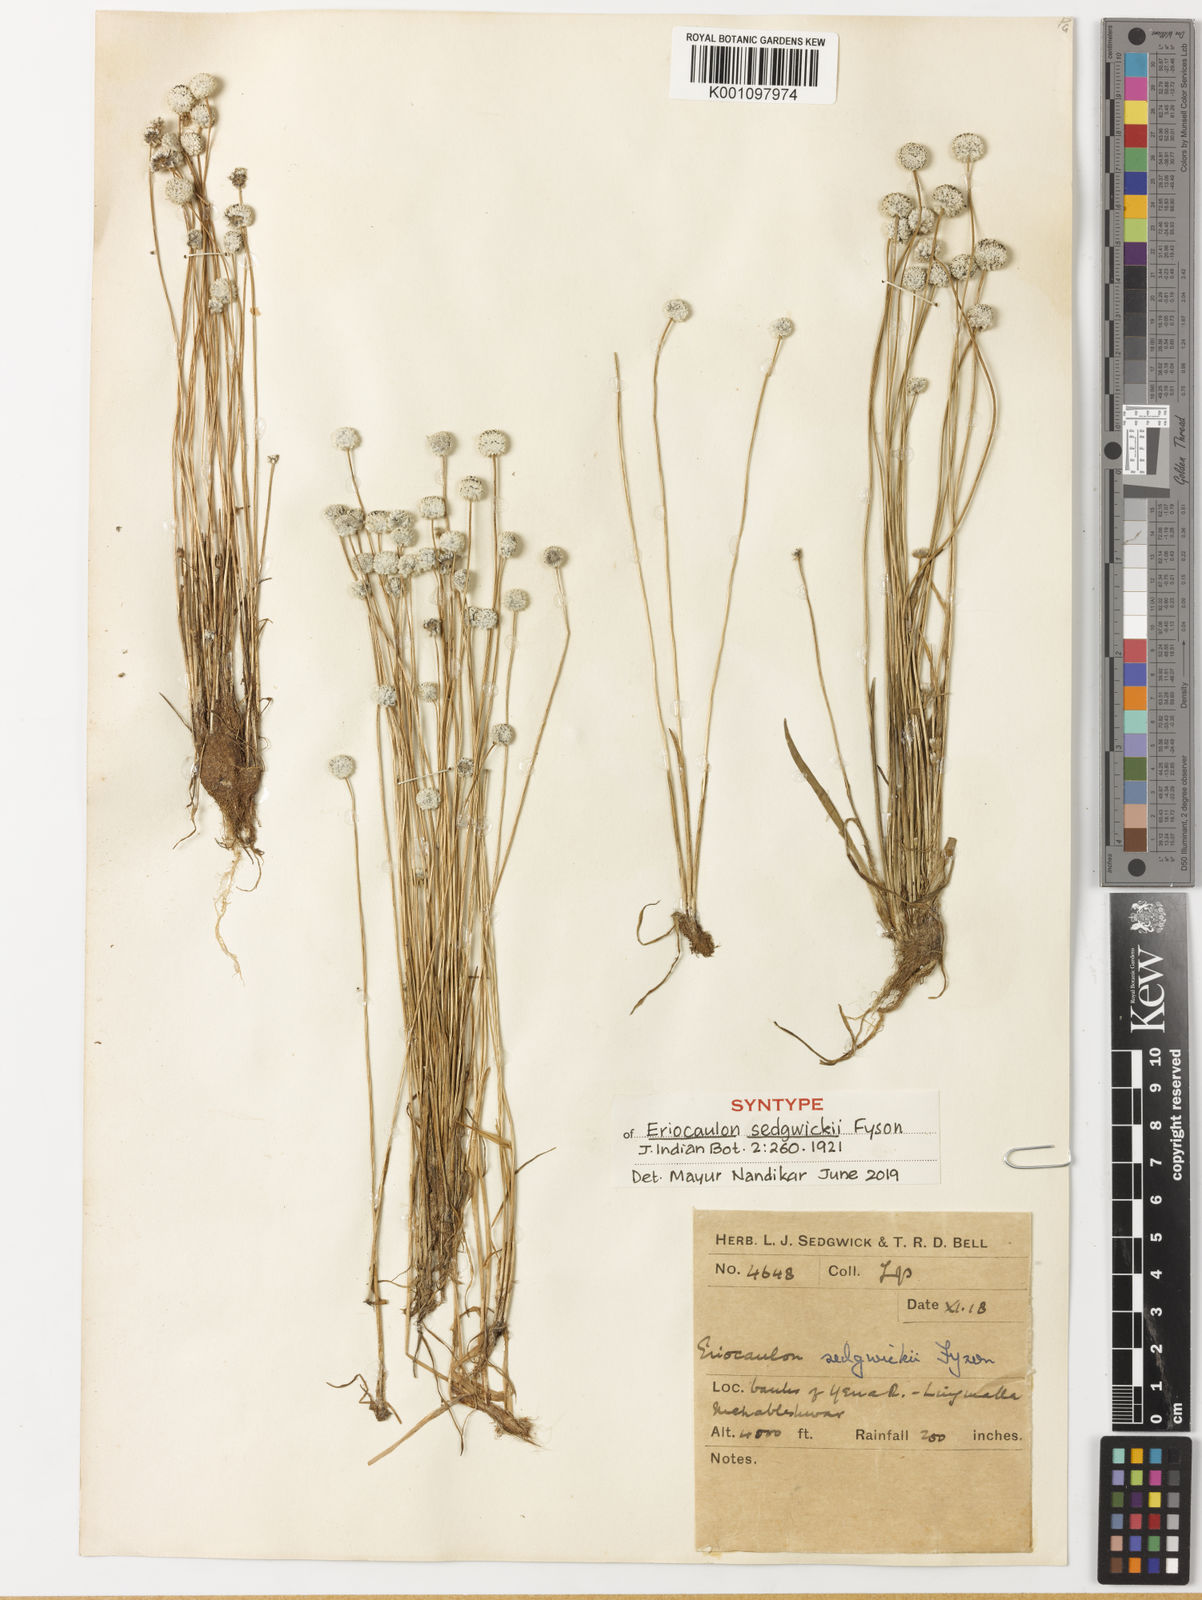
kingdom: Plantae
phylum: Tracheophyta
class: Liliopsida
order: Poales
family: Eriocaulaceae
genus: Eriocaulon
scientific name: Eriocaulon sedgwickii
